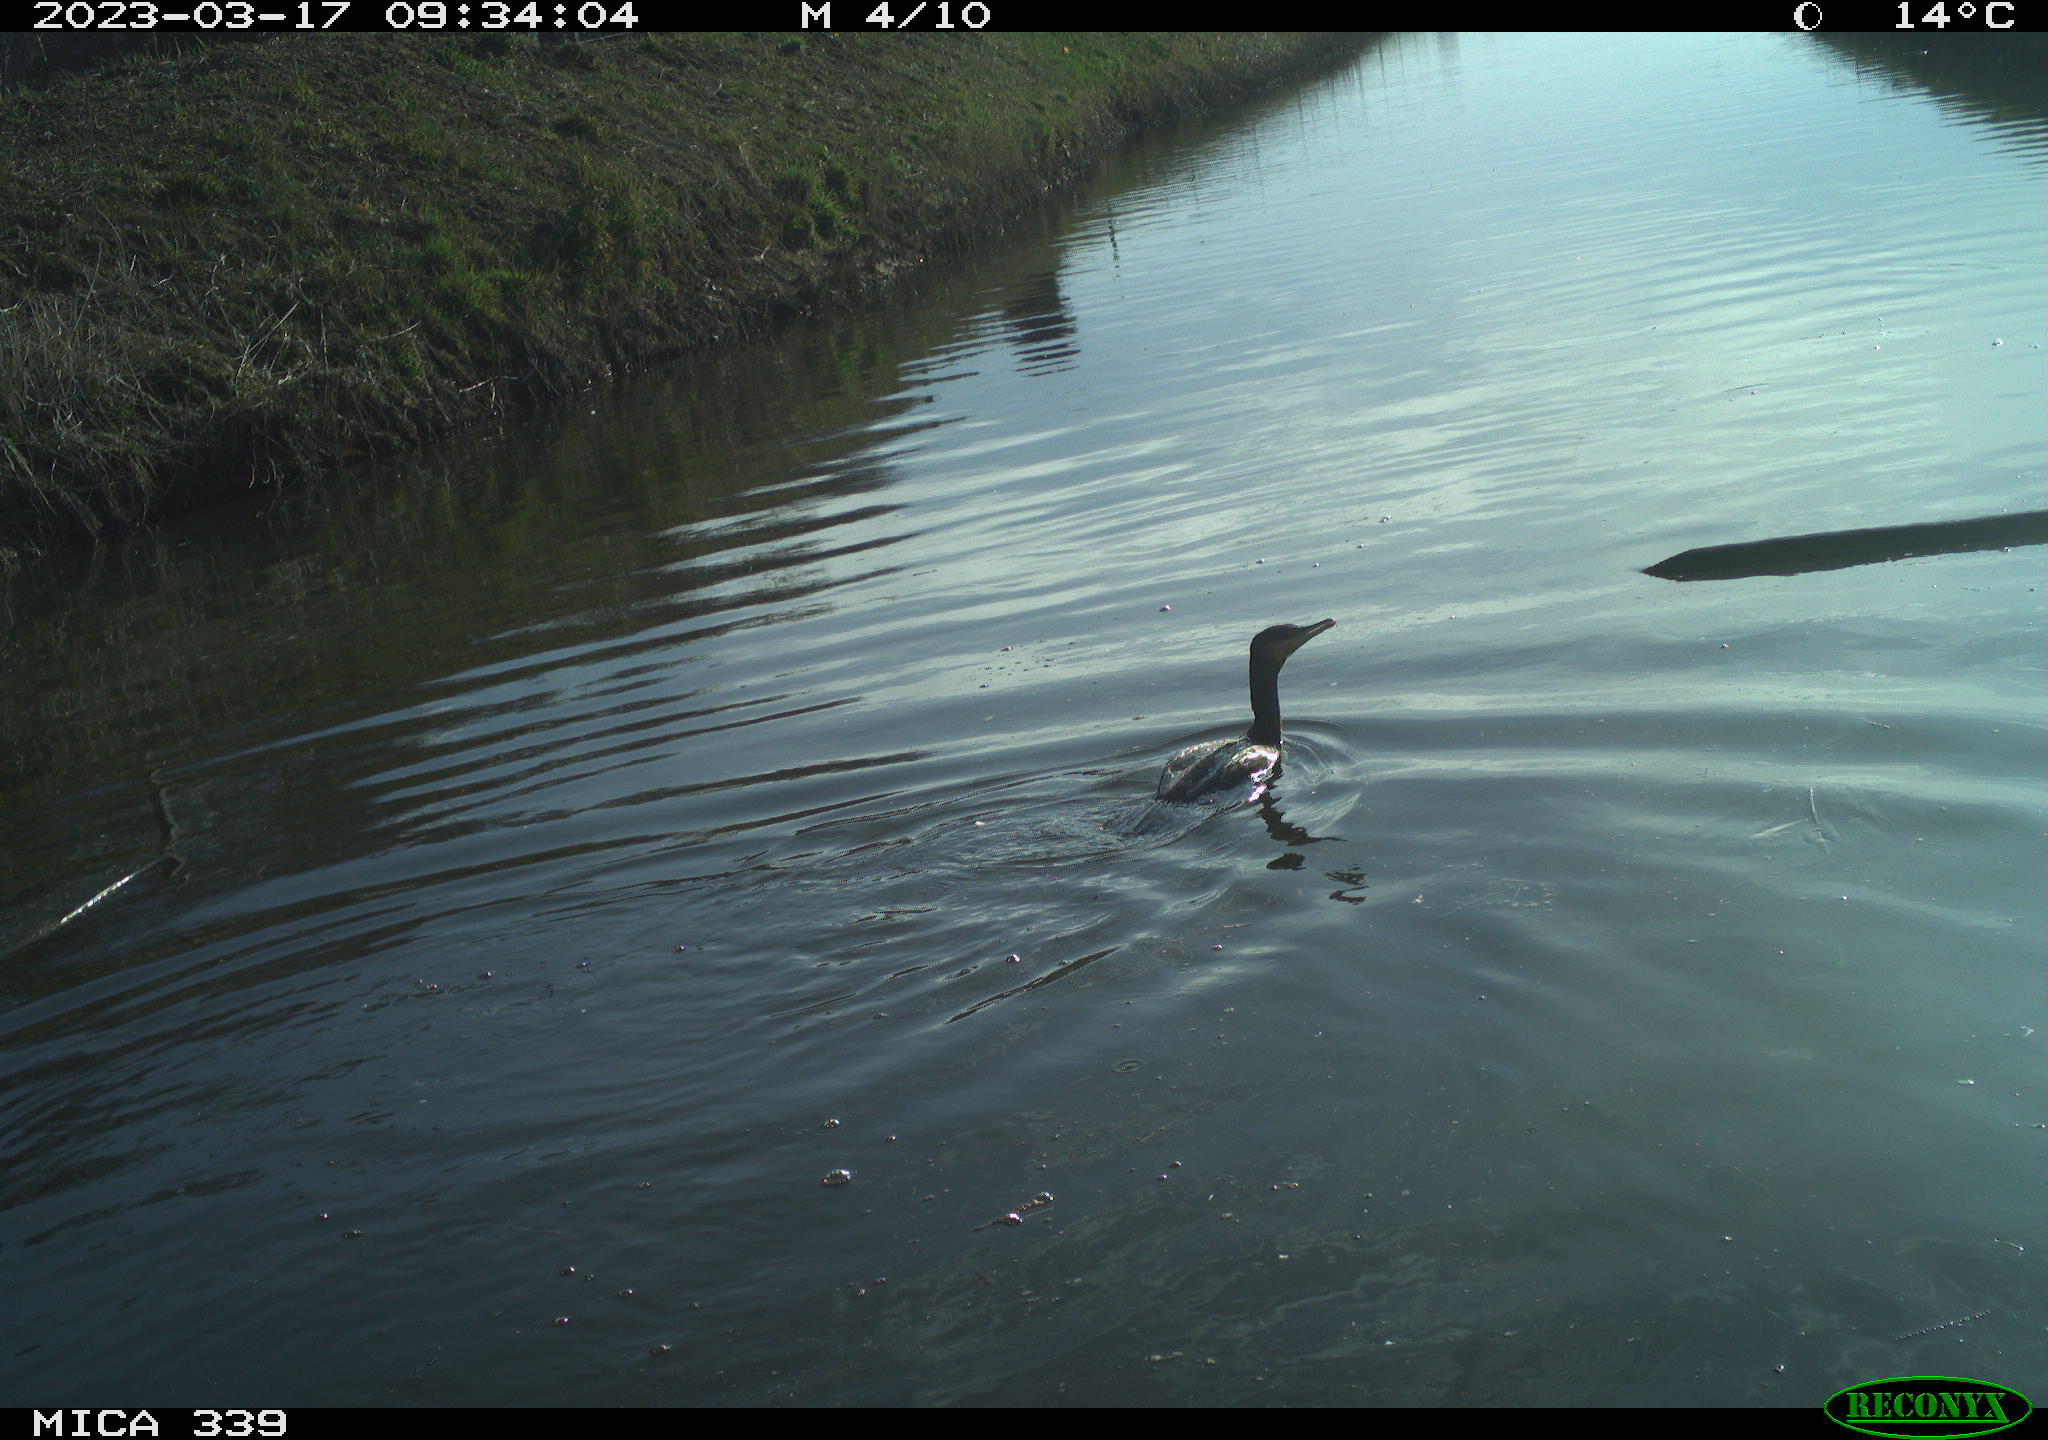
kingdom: Animalia
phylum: Chordata
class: Aves
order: Anseriformes
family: Anatidae
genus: Anas
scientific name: Anas
